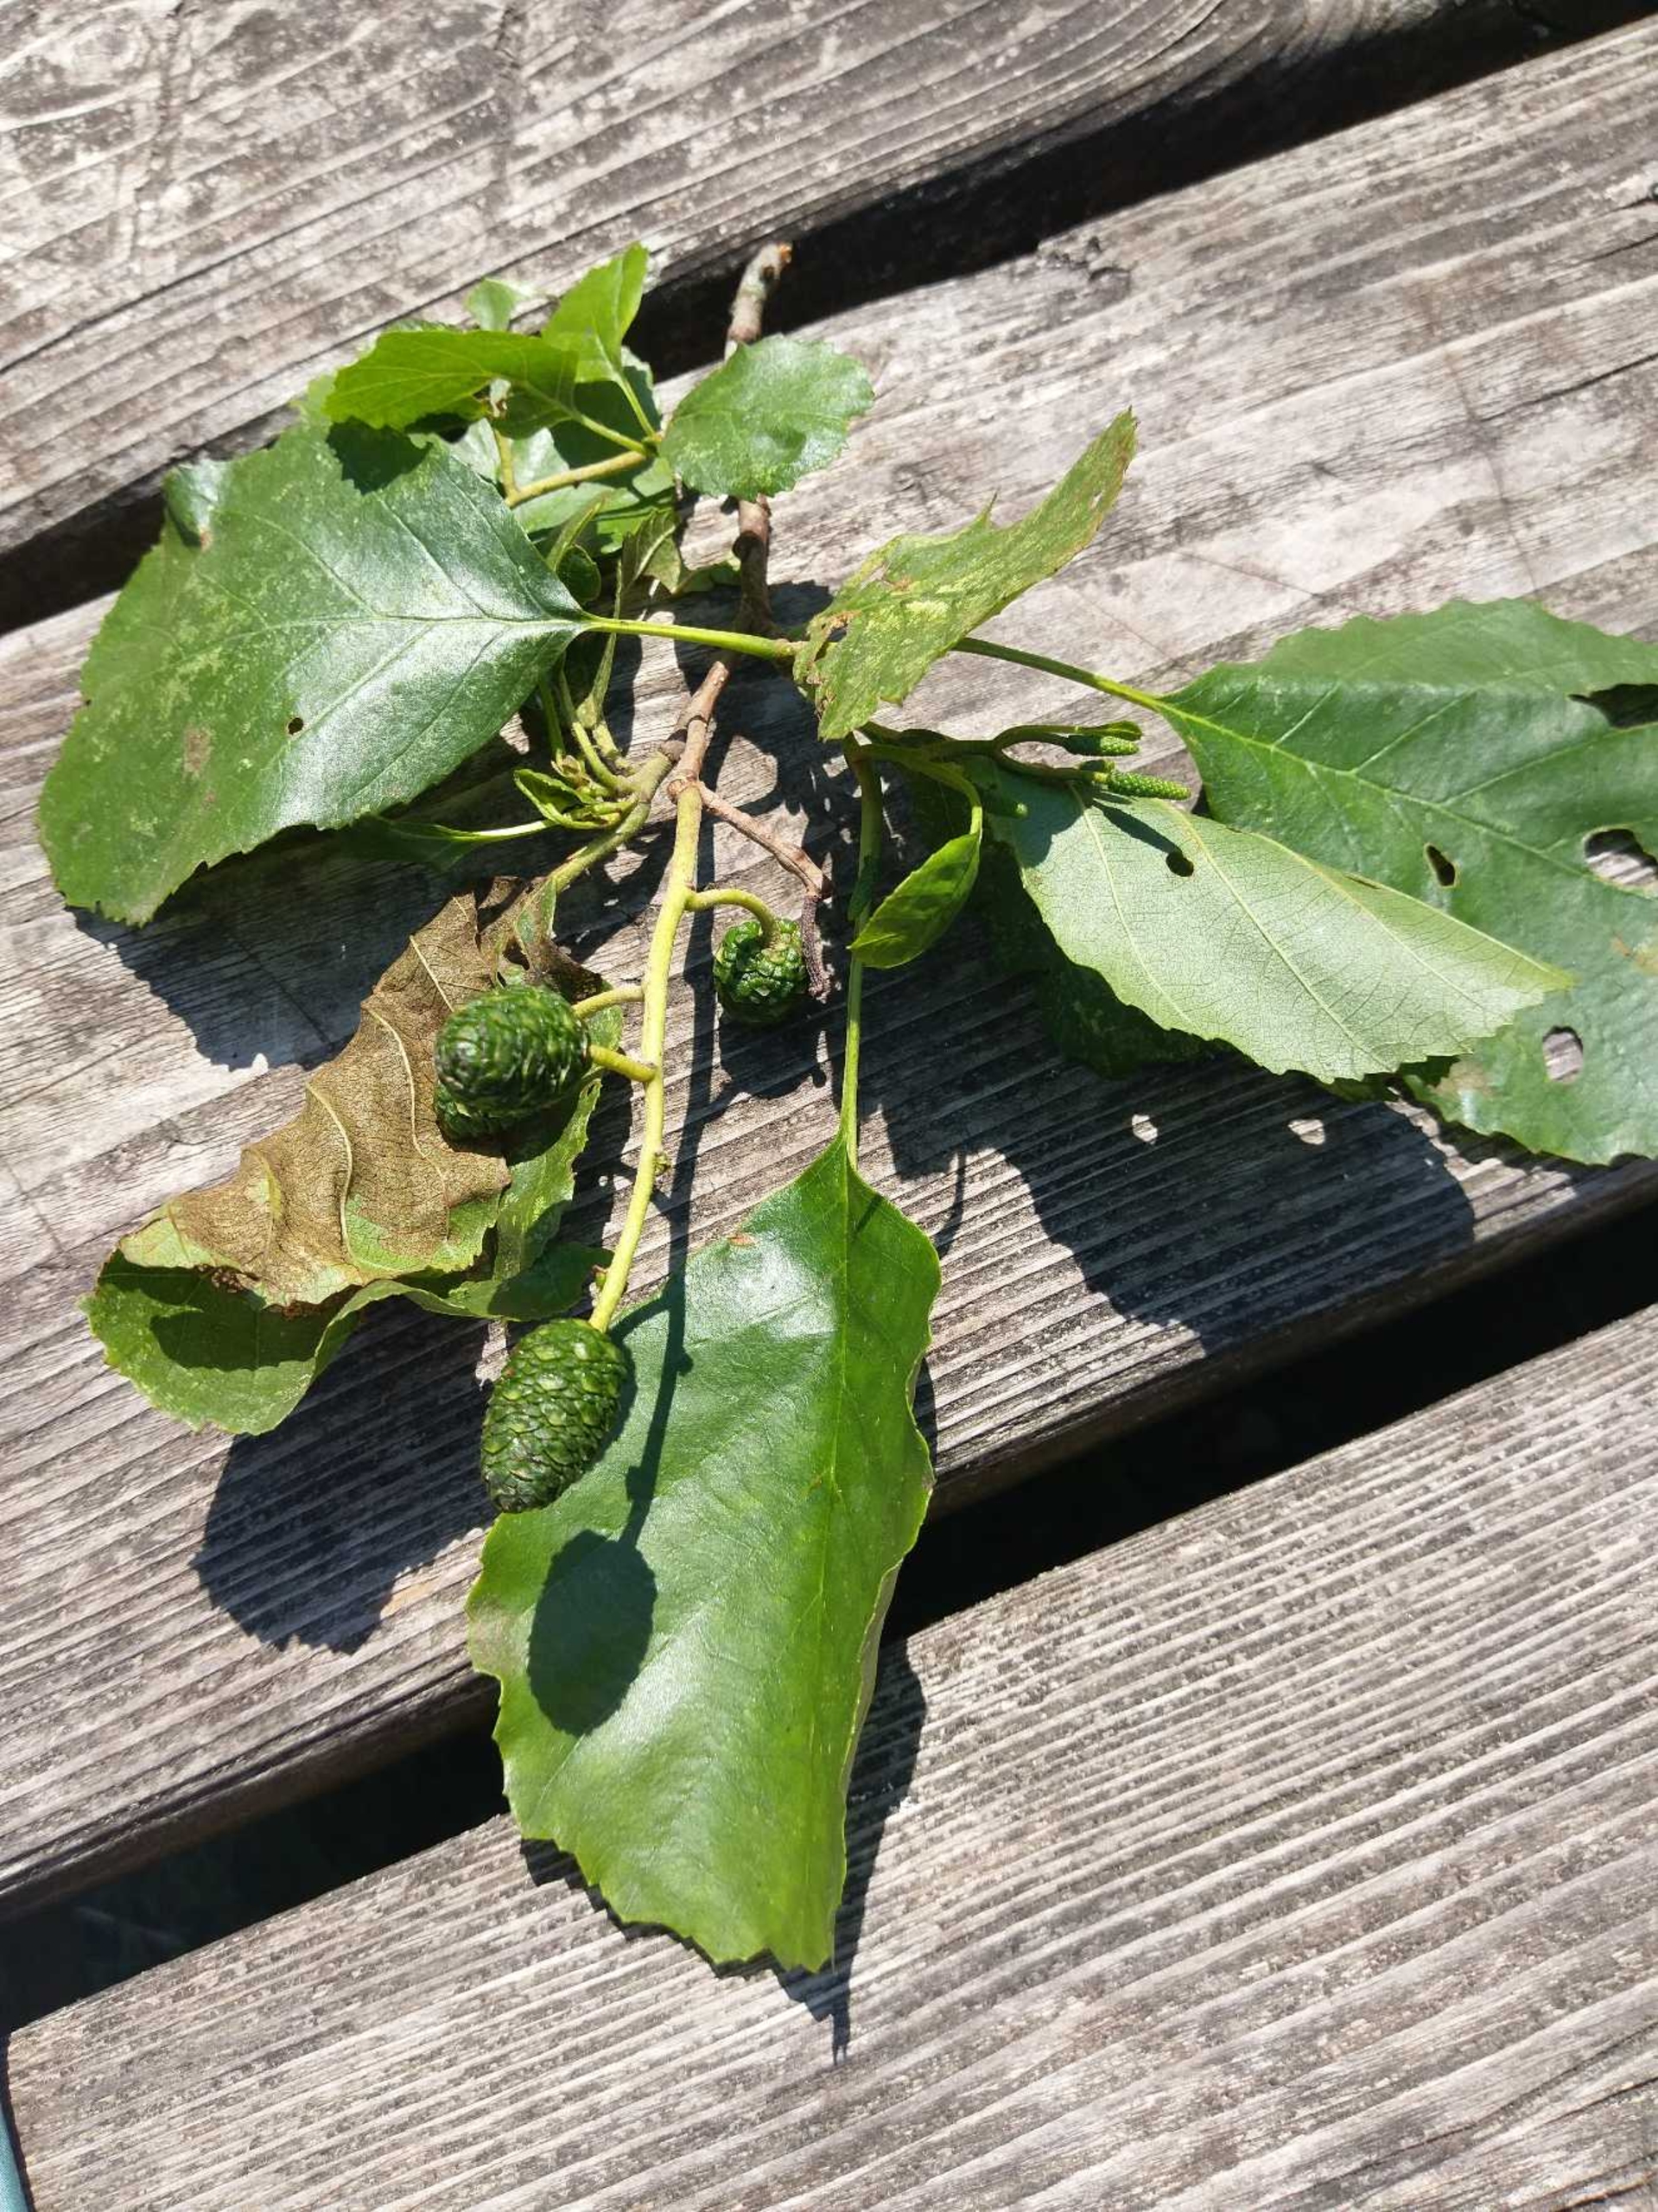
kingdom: Plantae
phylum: Tracheophyta
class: Magnoliopsida
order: Fagales
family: Betulaceae
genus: Alnus
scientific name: Alnus glutinosa
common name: Rød-el
